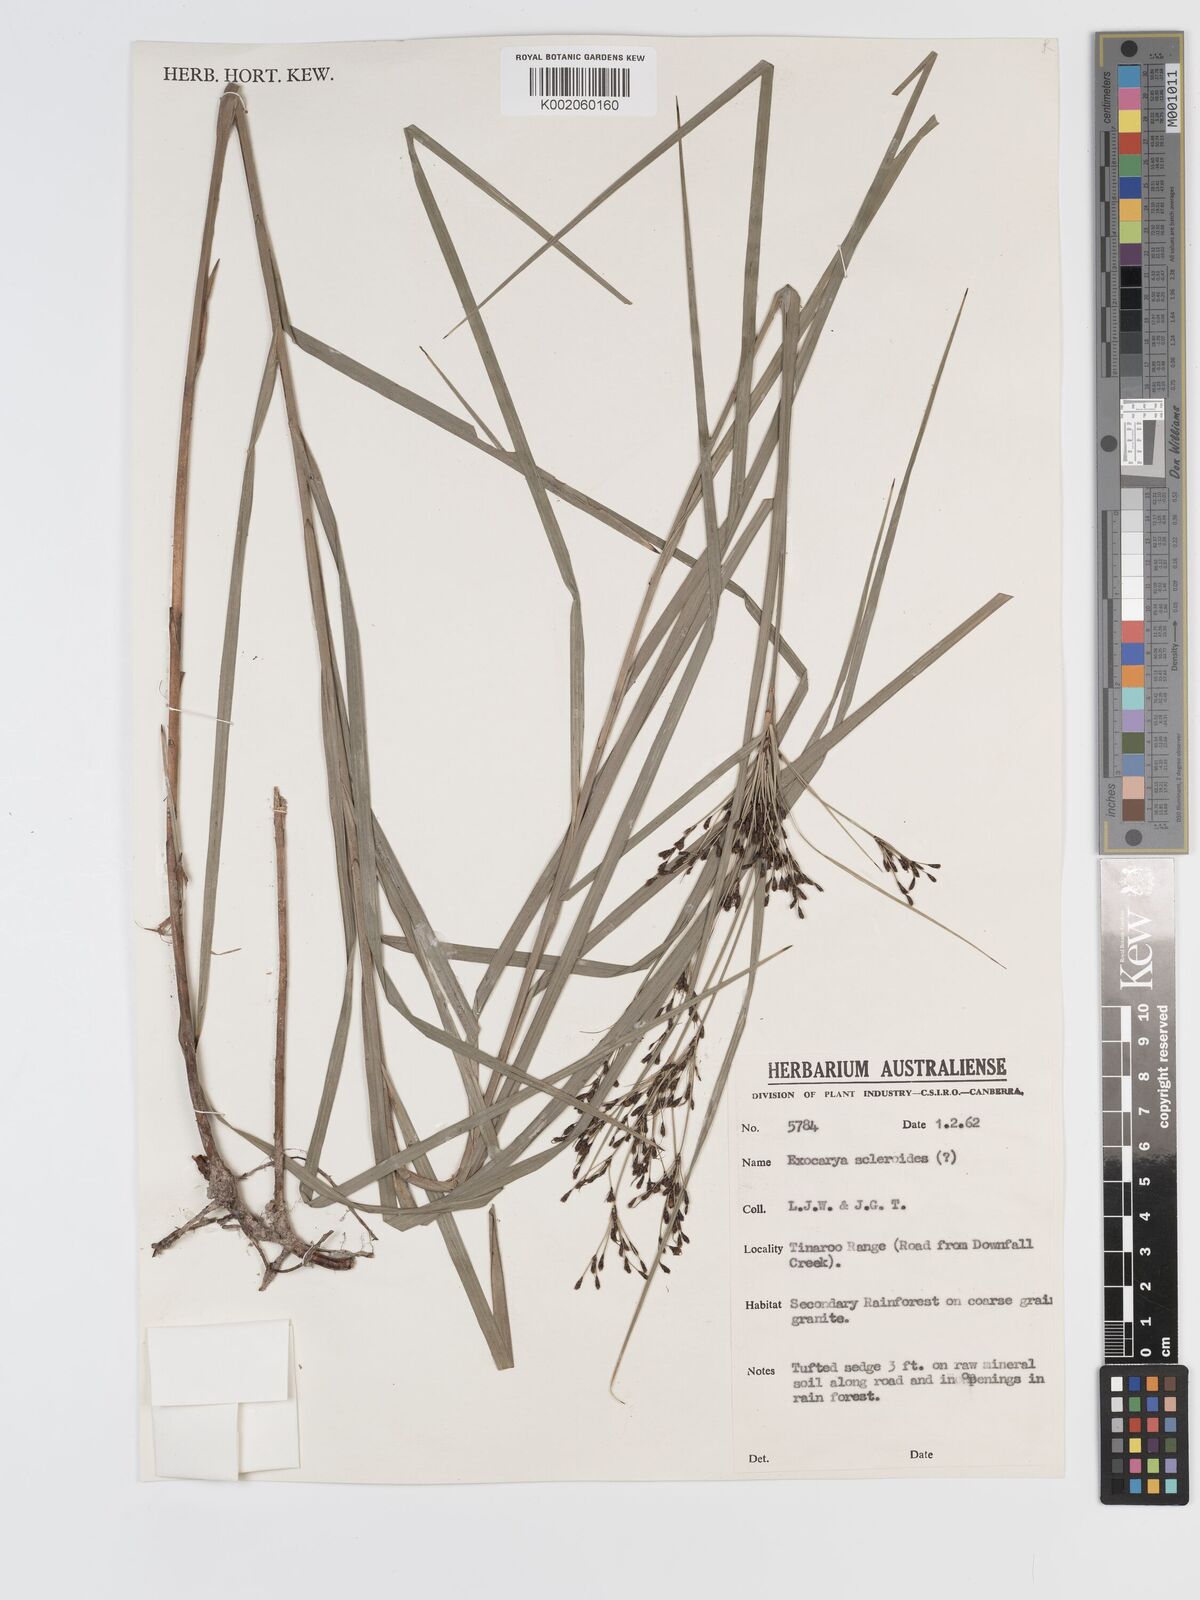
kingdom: Plantae
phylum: Tracheophyta
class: Liliopsida
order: Poales
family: Cyperaceae
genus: Exocarya
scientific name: Exocarya sclerioides
